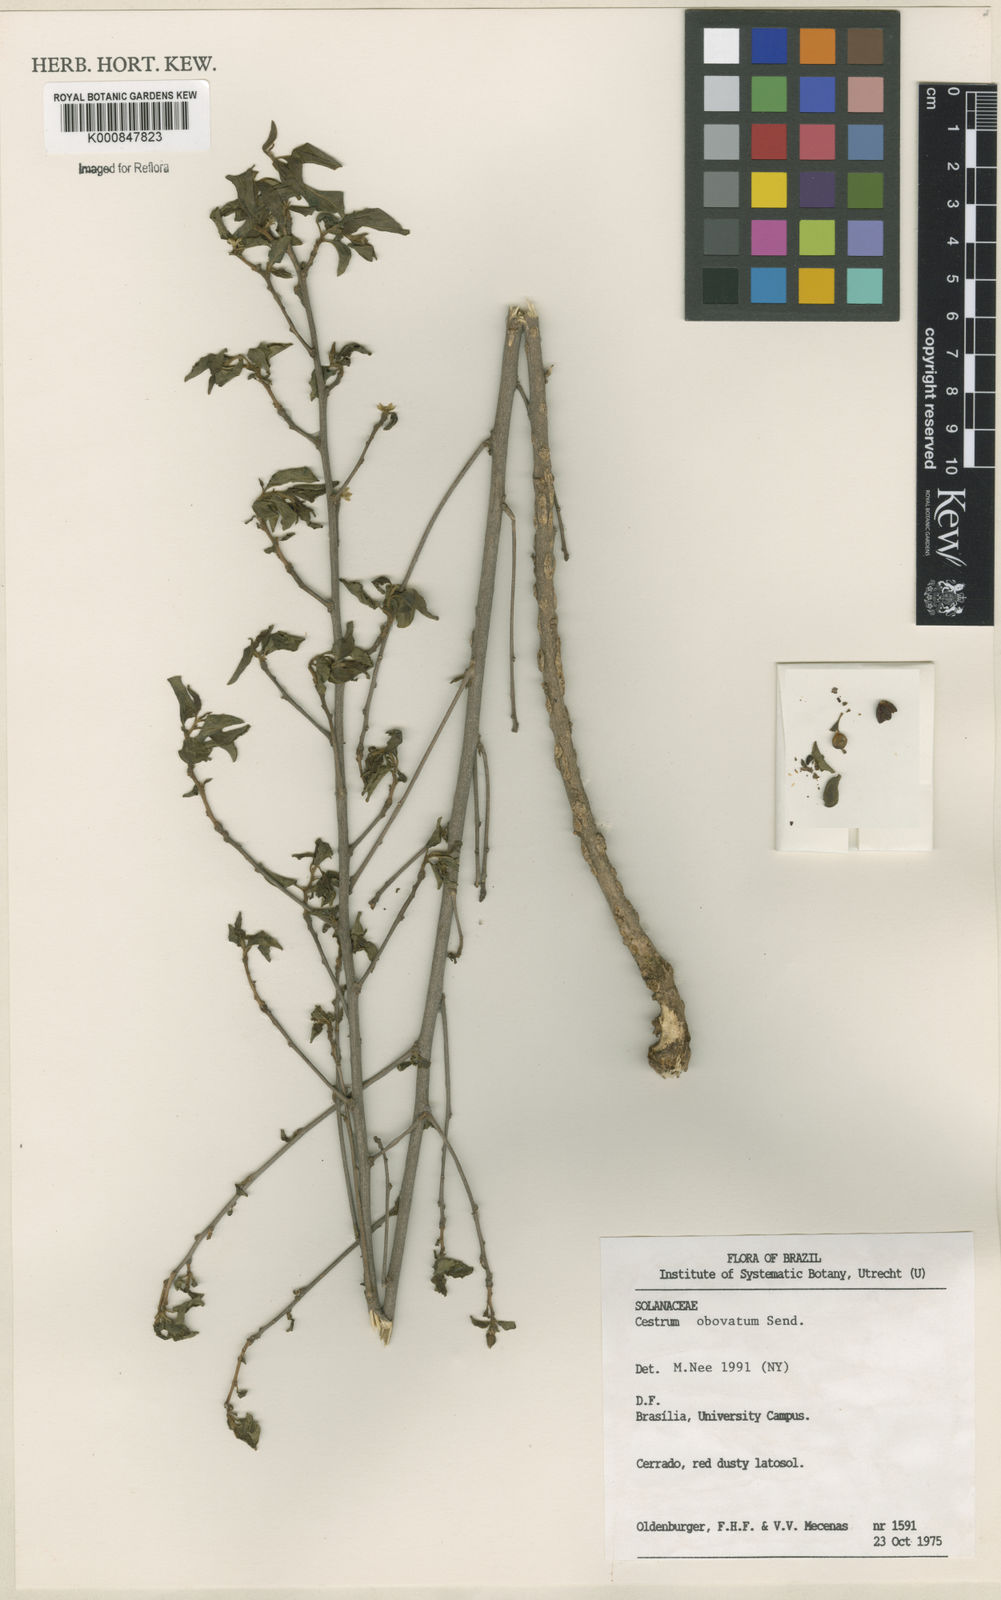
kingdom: Plantae
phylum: Tracheophyta
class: Magnoliopsida
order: Solanales
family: Solanaceae
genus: Cestrum
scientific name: Cestrum obovatum
